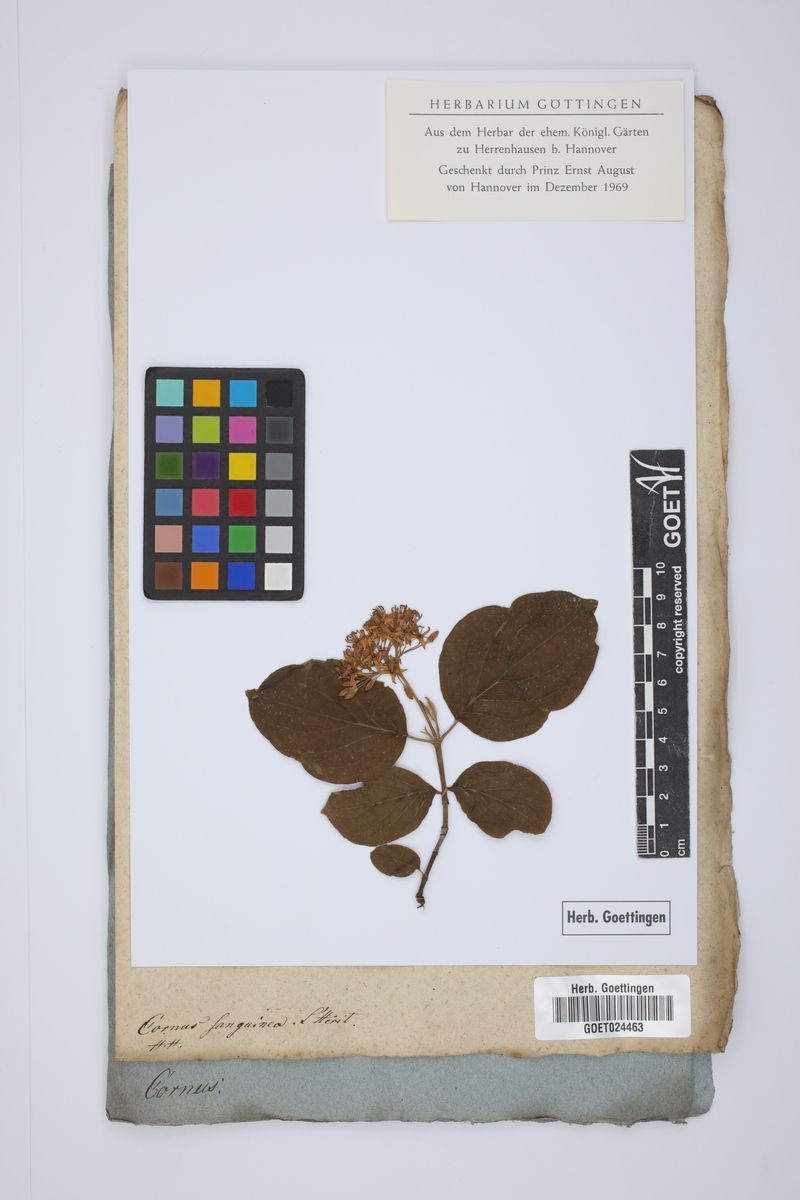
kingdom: Plantae
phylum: Tracheophyta
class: Magnoliopsida
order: Cornales
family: Cornaceae
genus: Cornus
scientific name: Cornus sanguinea
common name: Dogwood
